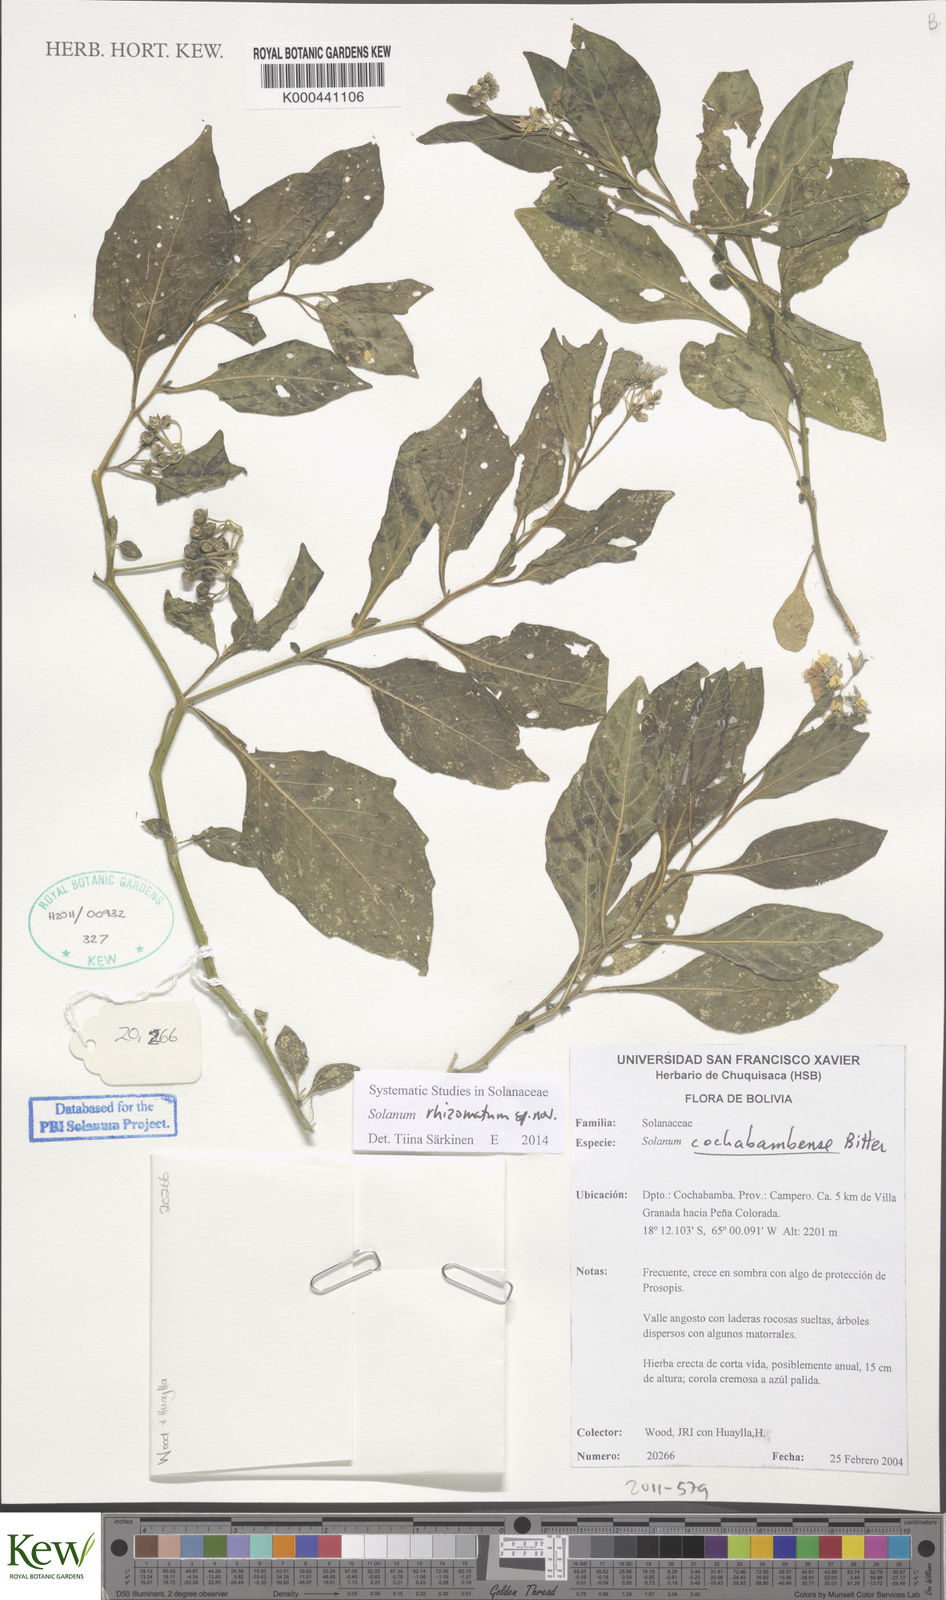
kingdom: Plantae
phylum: Tracheophyta
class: Magnoliopsida
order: Solanales
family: Solanaceae
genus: Solanum
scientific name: Solanum
